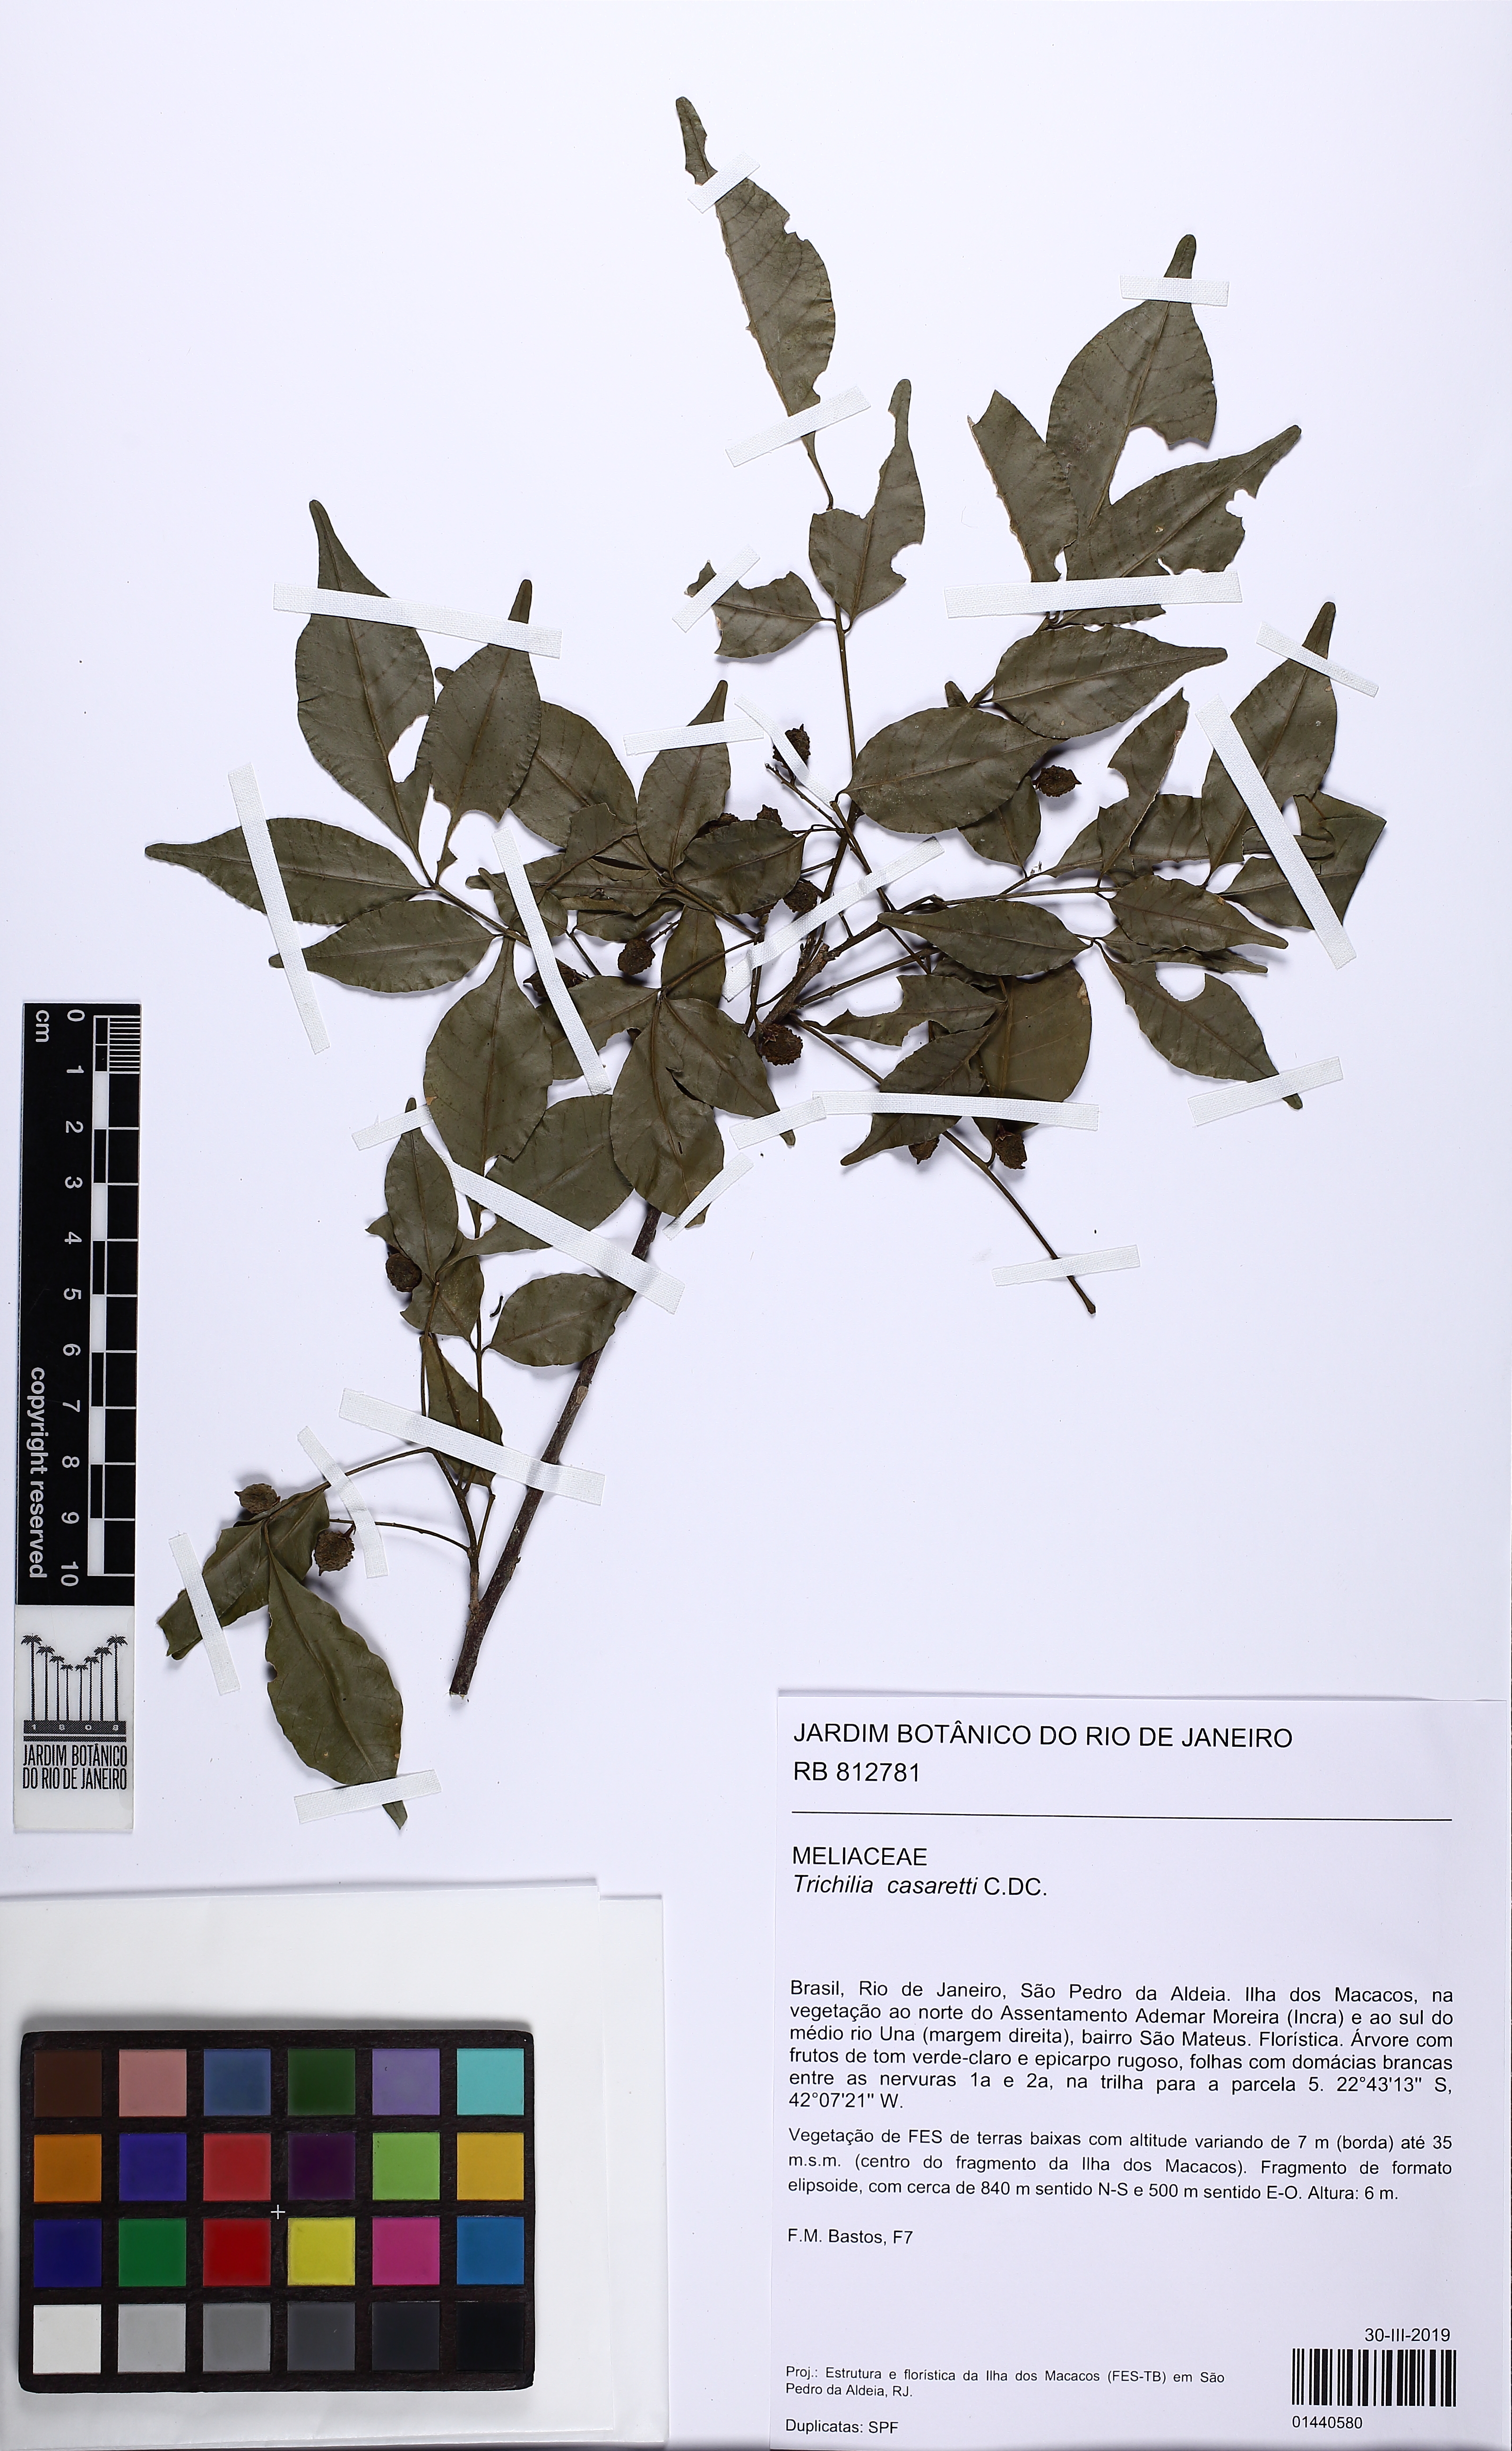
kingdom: Plantae
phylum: Tracheophyta
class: Magnoliopsida
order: Sapindales
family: Meliaceae
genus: Trichilia
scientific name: Trichilia casaretti
